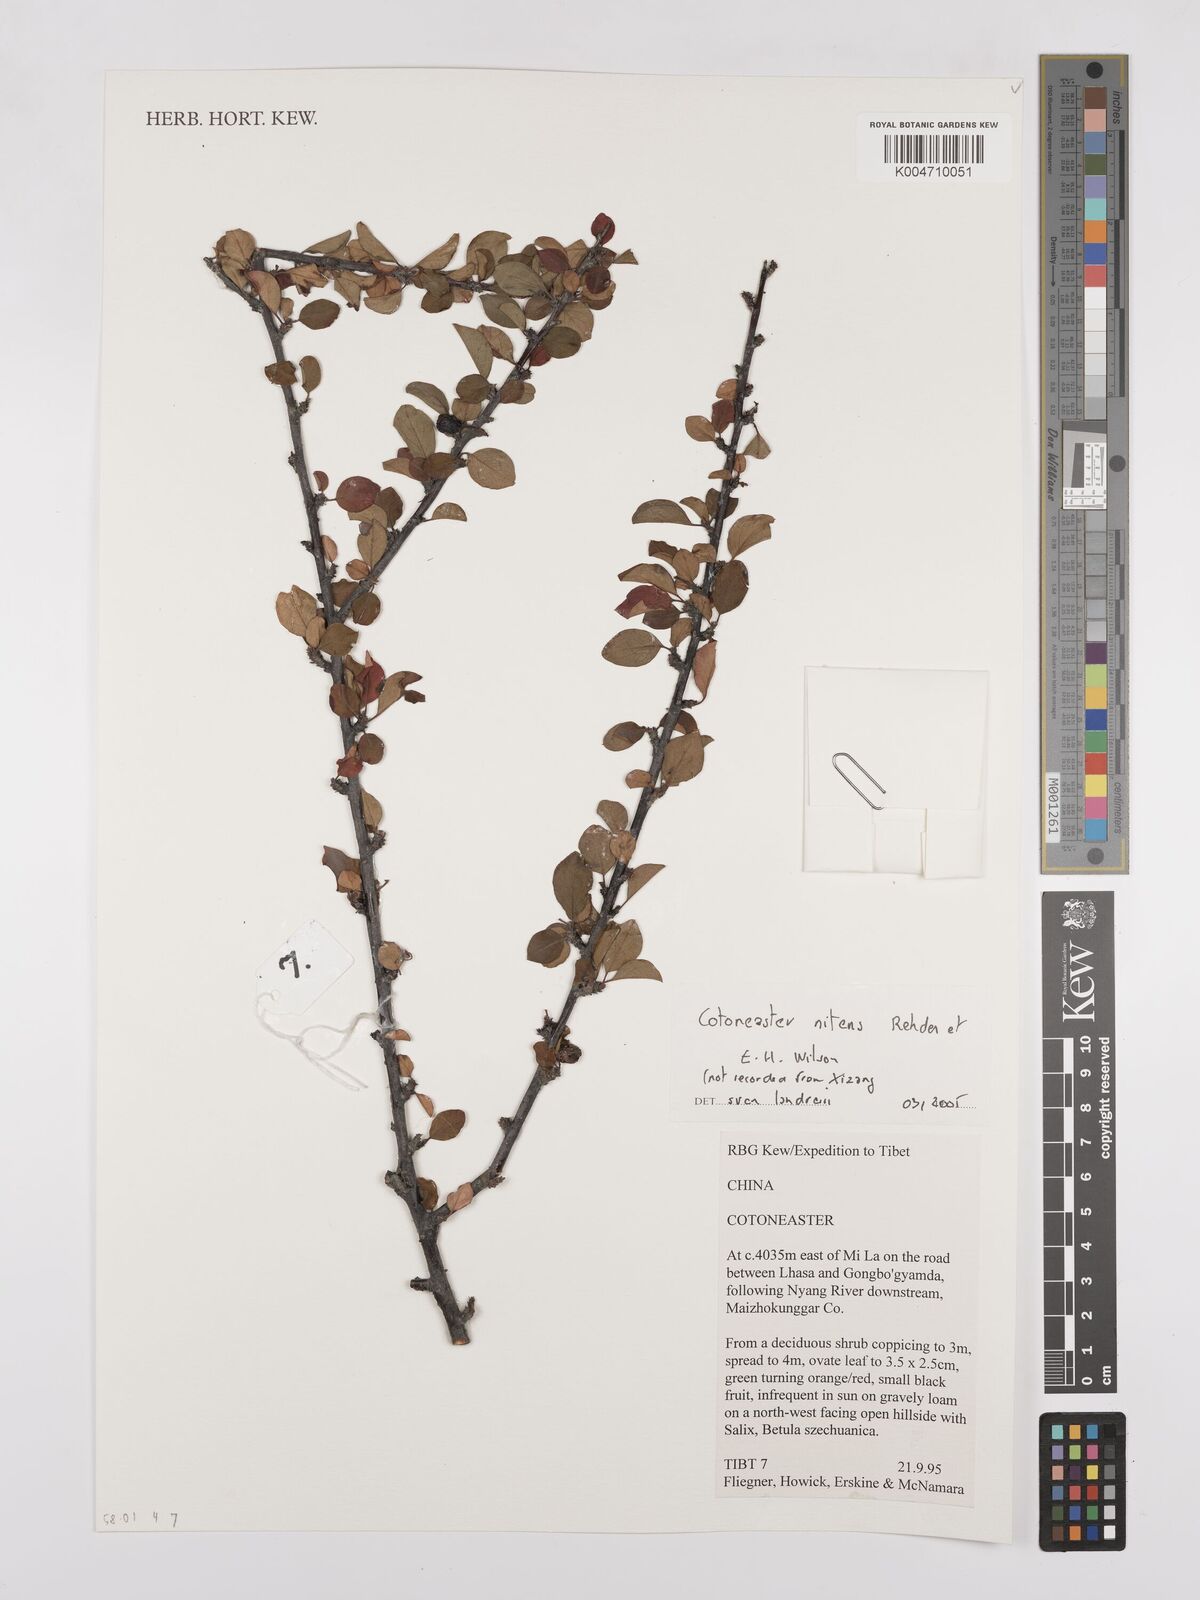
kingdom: Plantae
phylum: Tracheophyta
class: Magnoliopsida
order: Rosales
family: Rosaceae
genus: Cotoneaster
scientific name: Cotoneaster nitens
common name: Few-flowered cotoneaster
